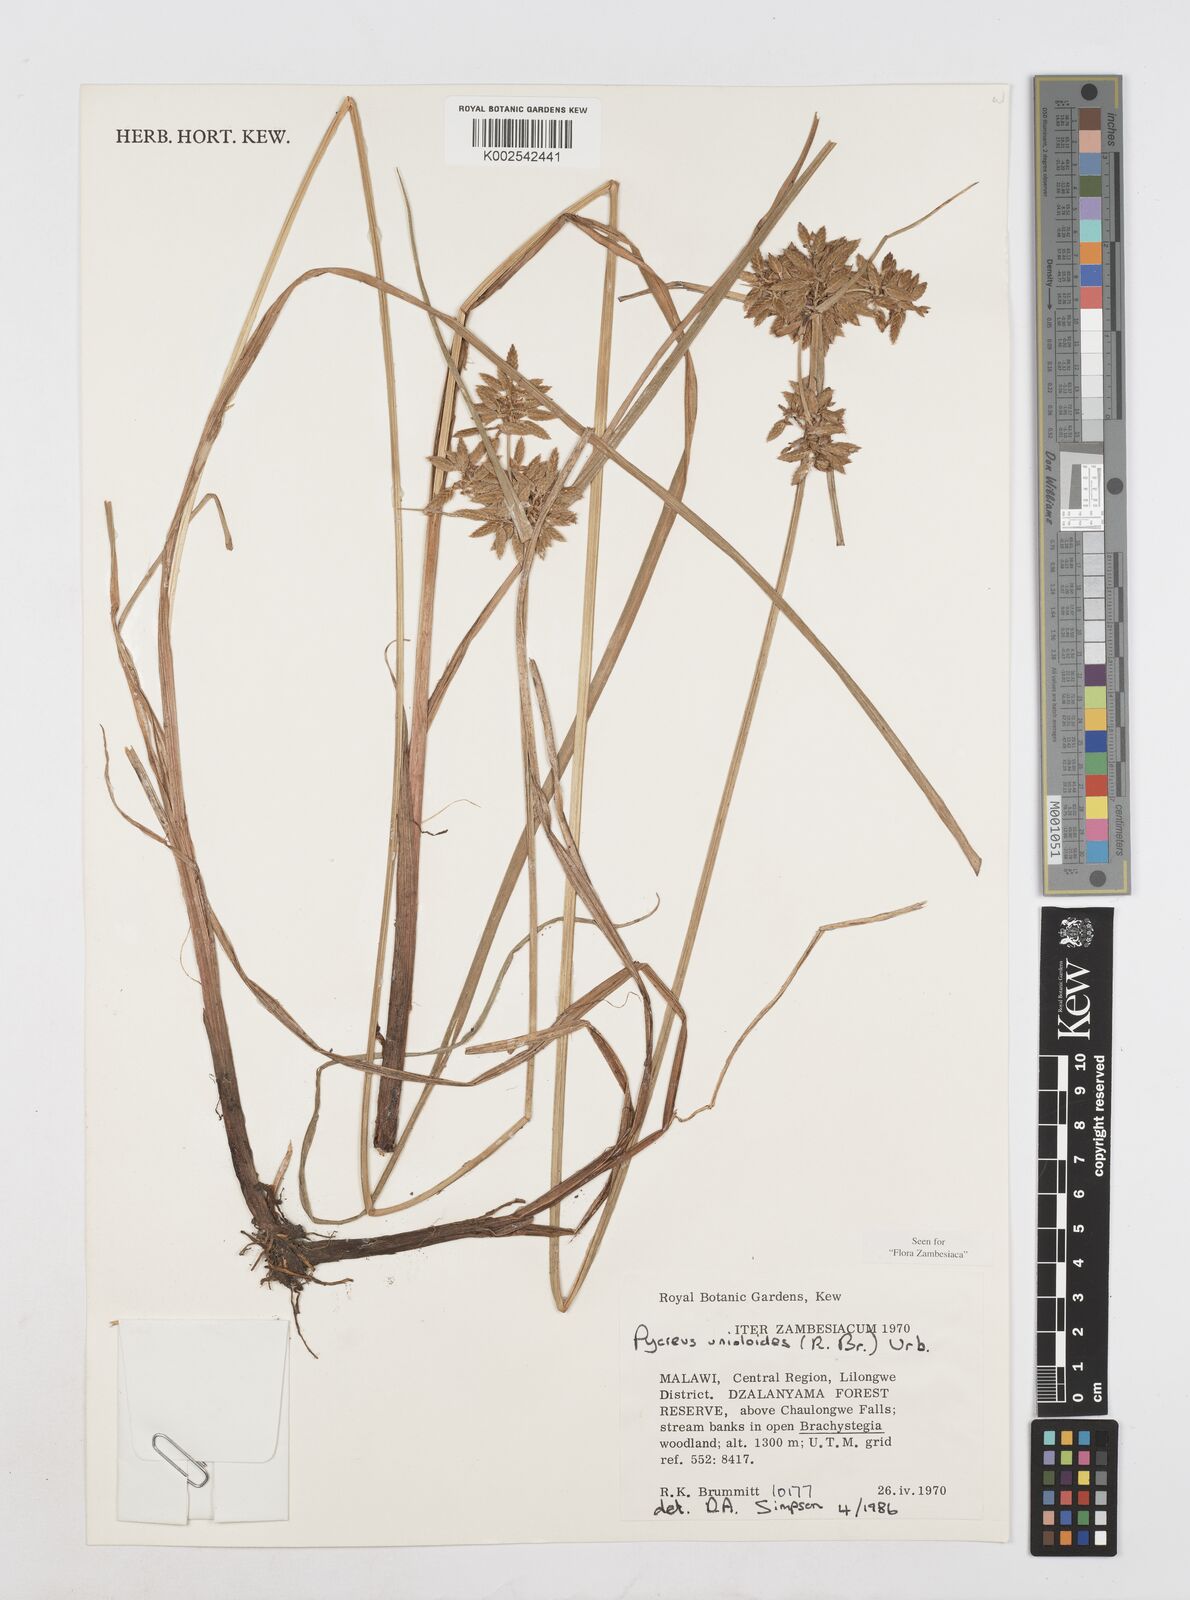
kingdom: Plantae
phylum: Tracheophyta
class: Liliopsida
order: Poales
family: Cyperaceae
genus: Cyperus
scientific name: Cyperus unioloides
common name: Uniola flatsedge
